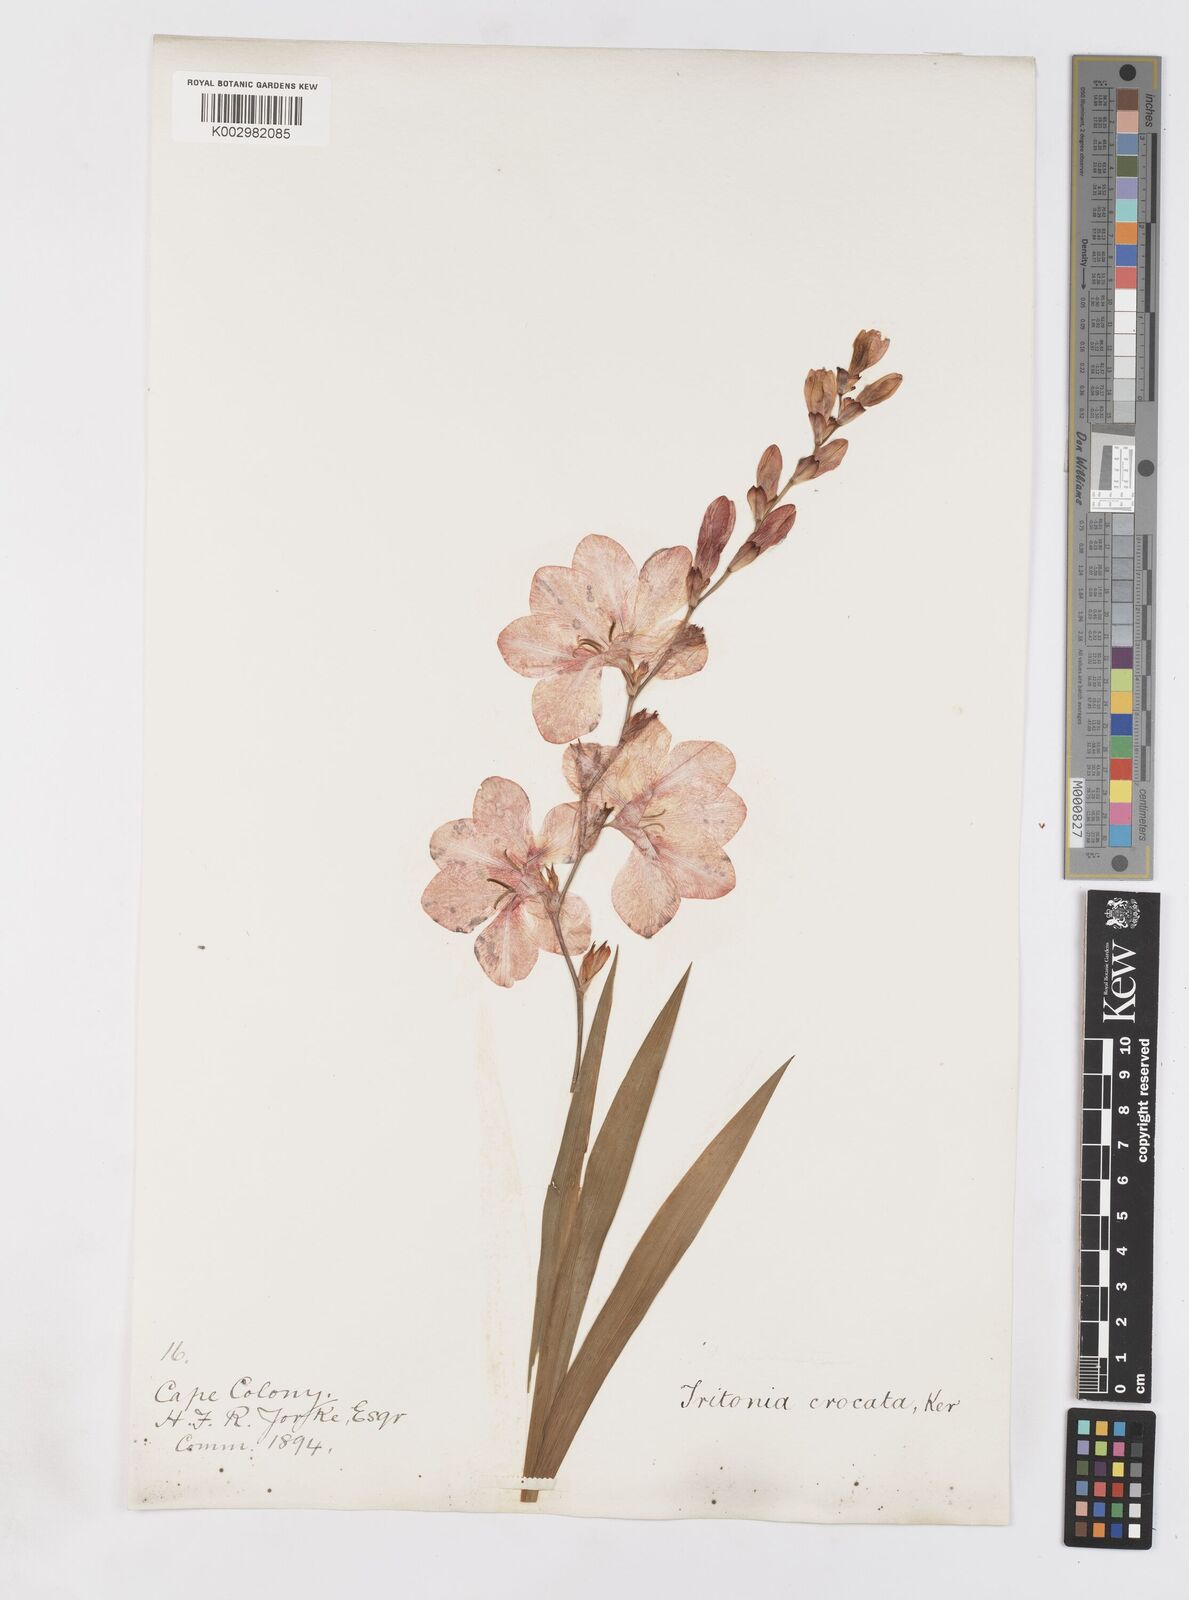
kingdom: Plantae
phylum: Tracheophyta
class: Liliopsida
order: Asparagales
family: Iridaceae
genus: Tritonia
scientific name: Tritonia crocata
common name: Flame-freesia
